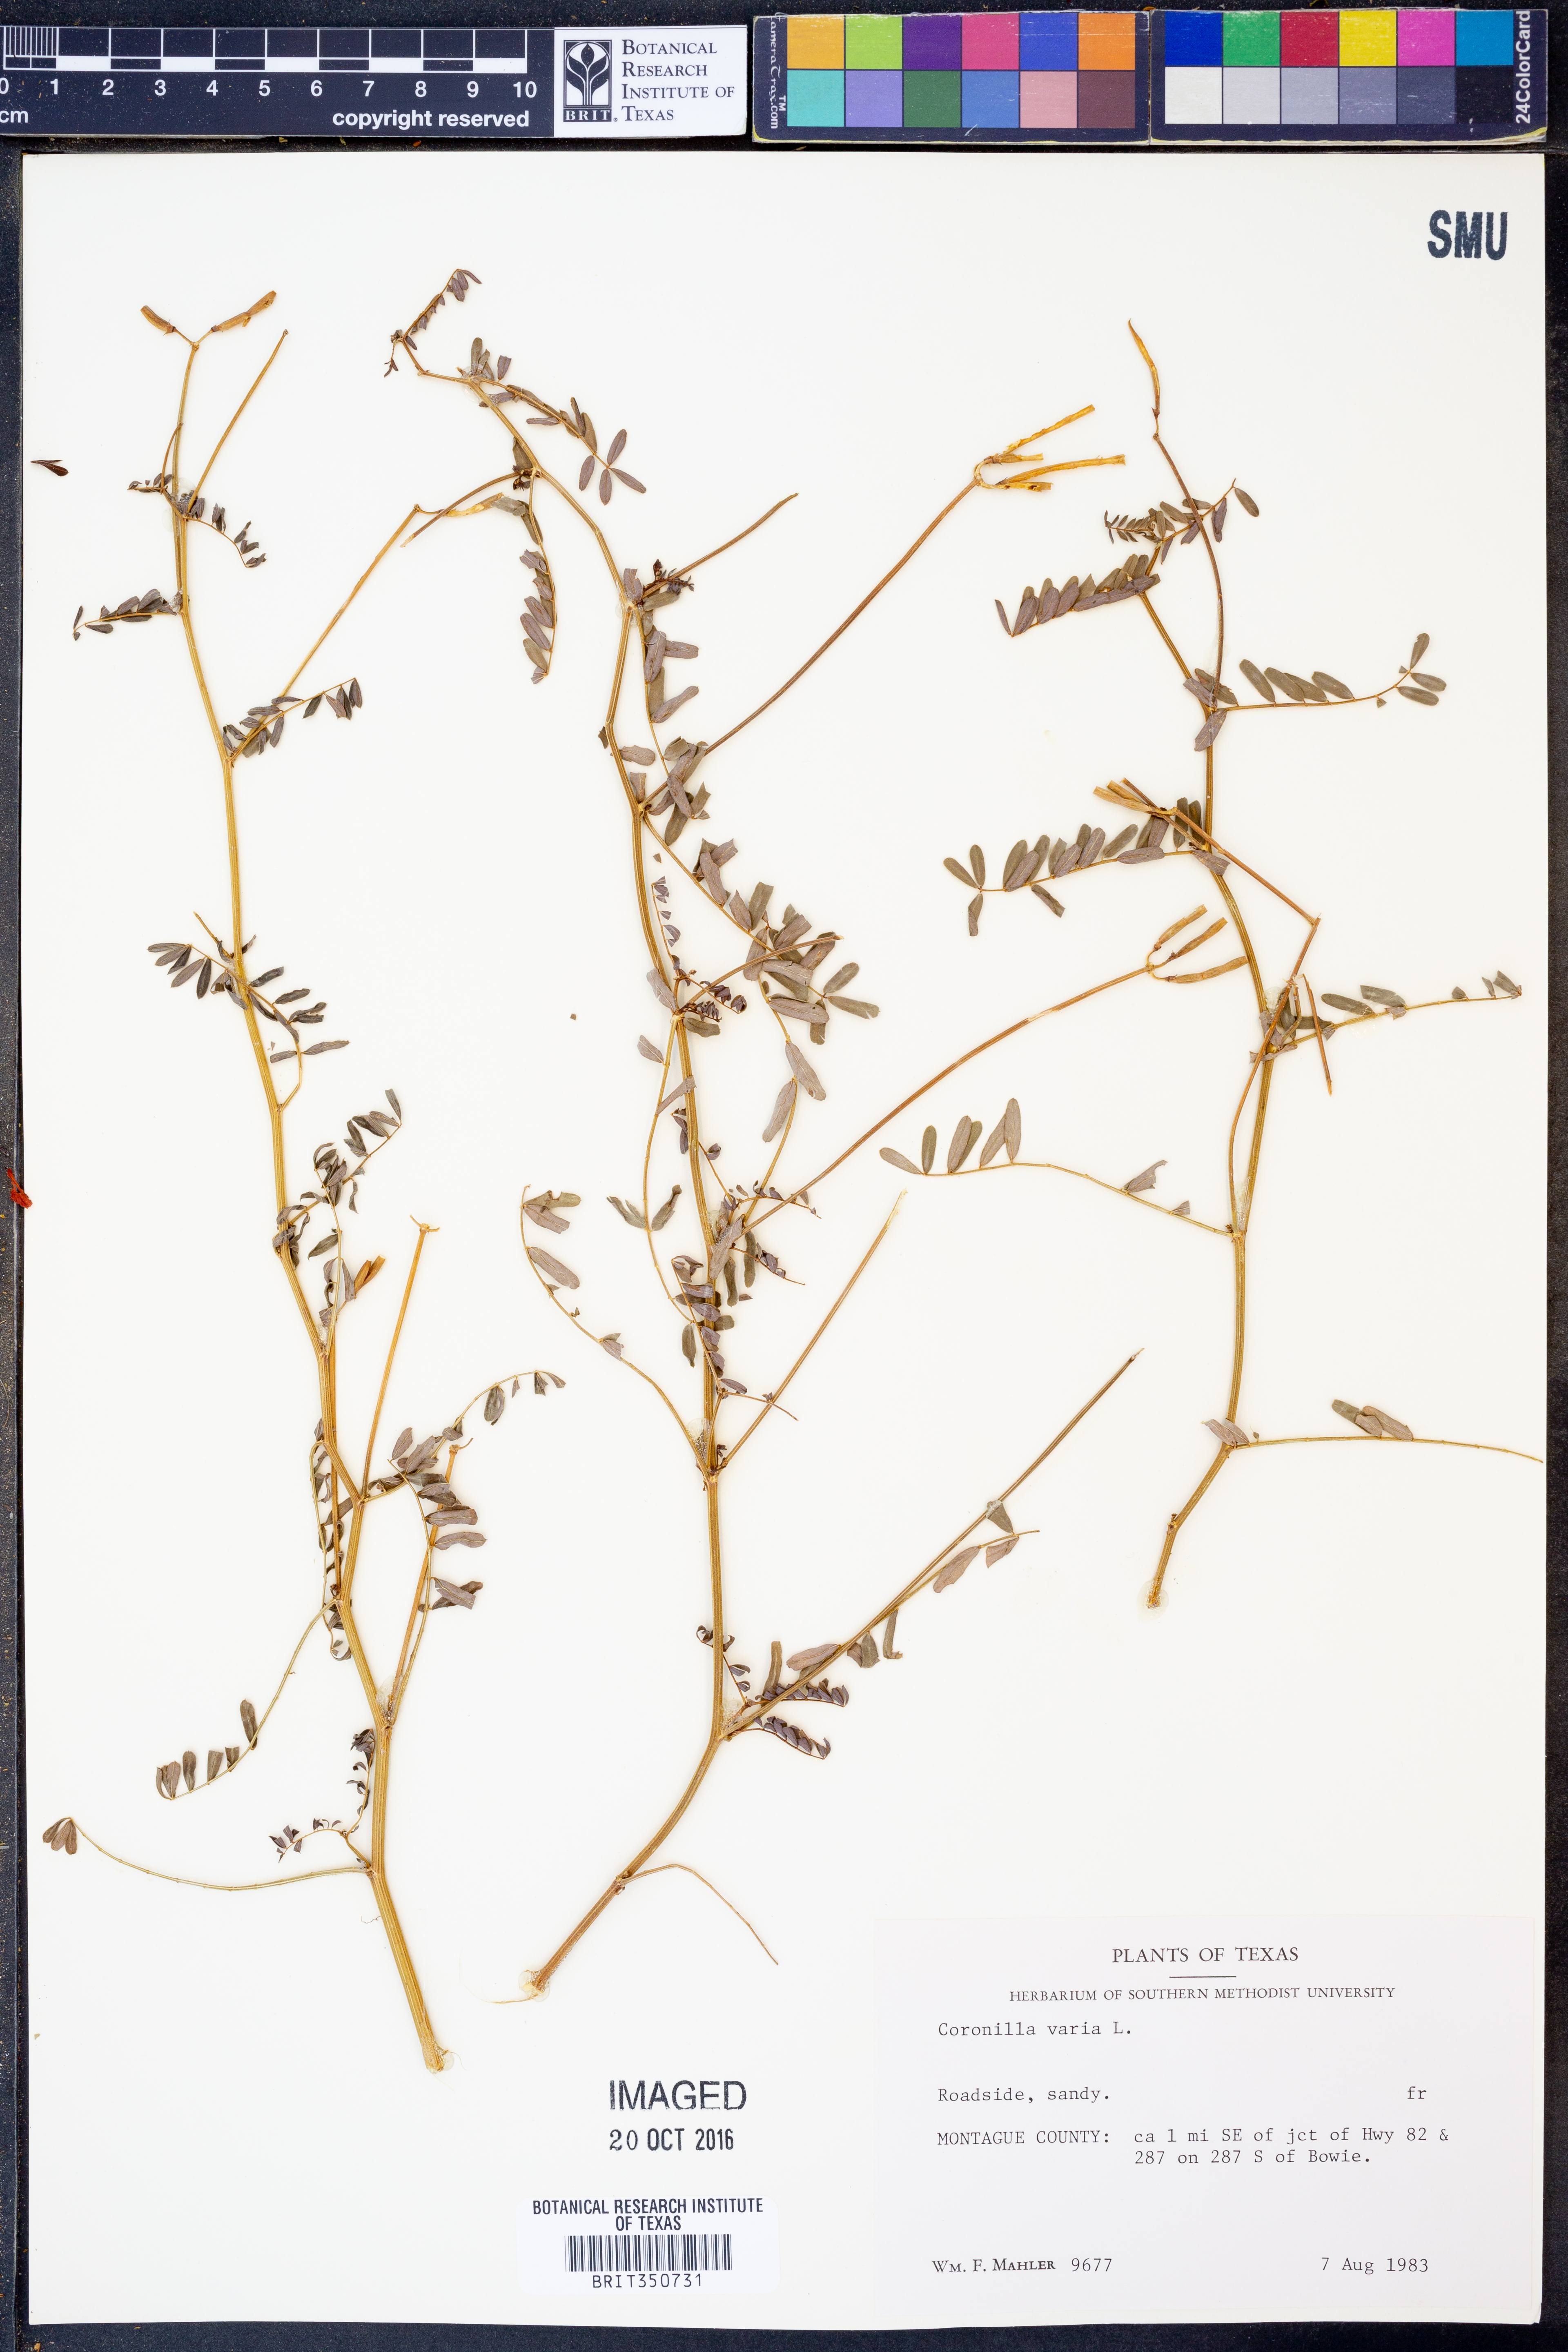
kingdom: Plantae
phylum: Tracheophyta
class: Magnoliopsida
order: Fabales
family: Fabaceae
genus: Coronilla
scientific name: Coronilla varia
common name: Crownvetch
